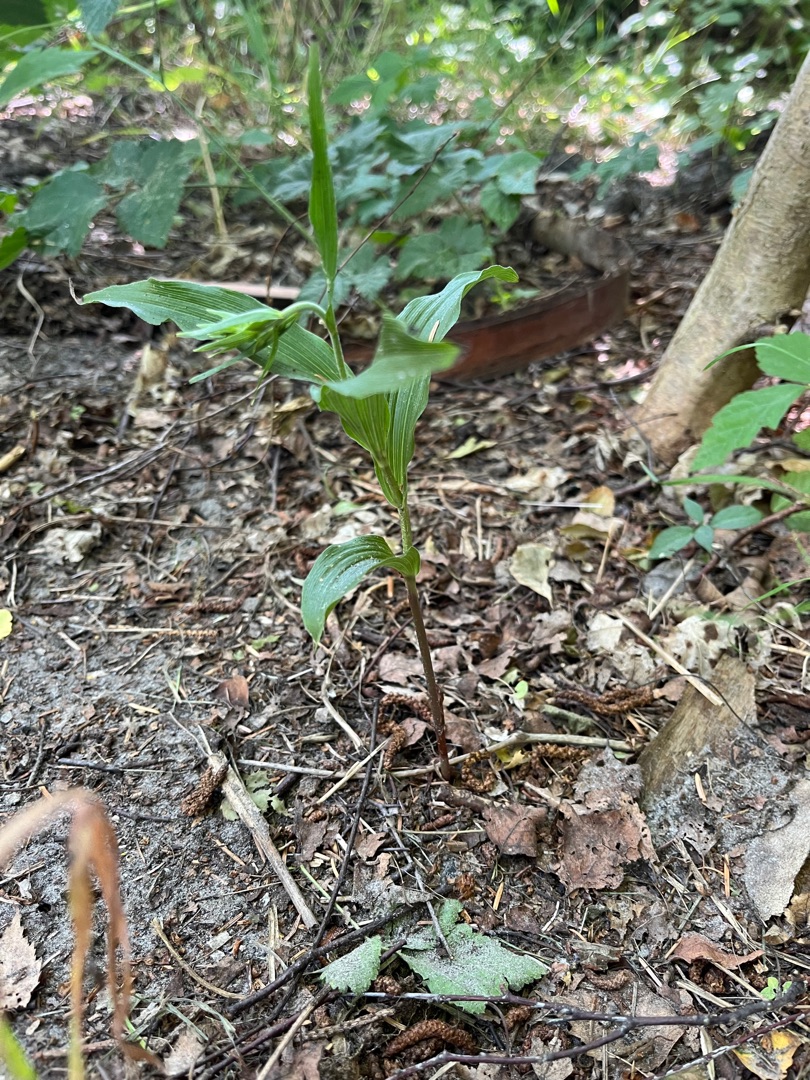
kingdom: Plantae
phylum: Tracheophyta
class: Liliopsida
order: Asparagales
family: Orchidaceae
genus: Epipactis
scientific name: Epipactis helleborine
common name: Skov-hullæbe
